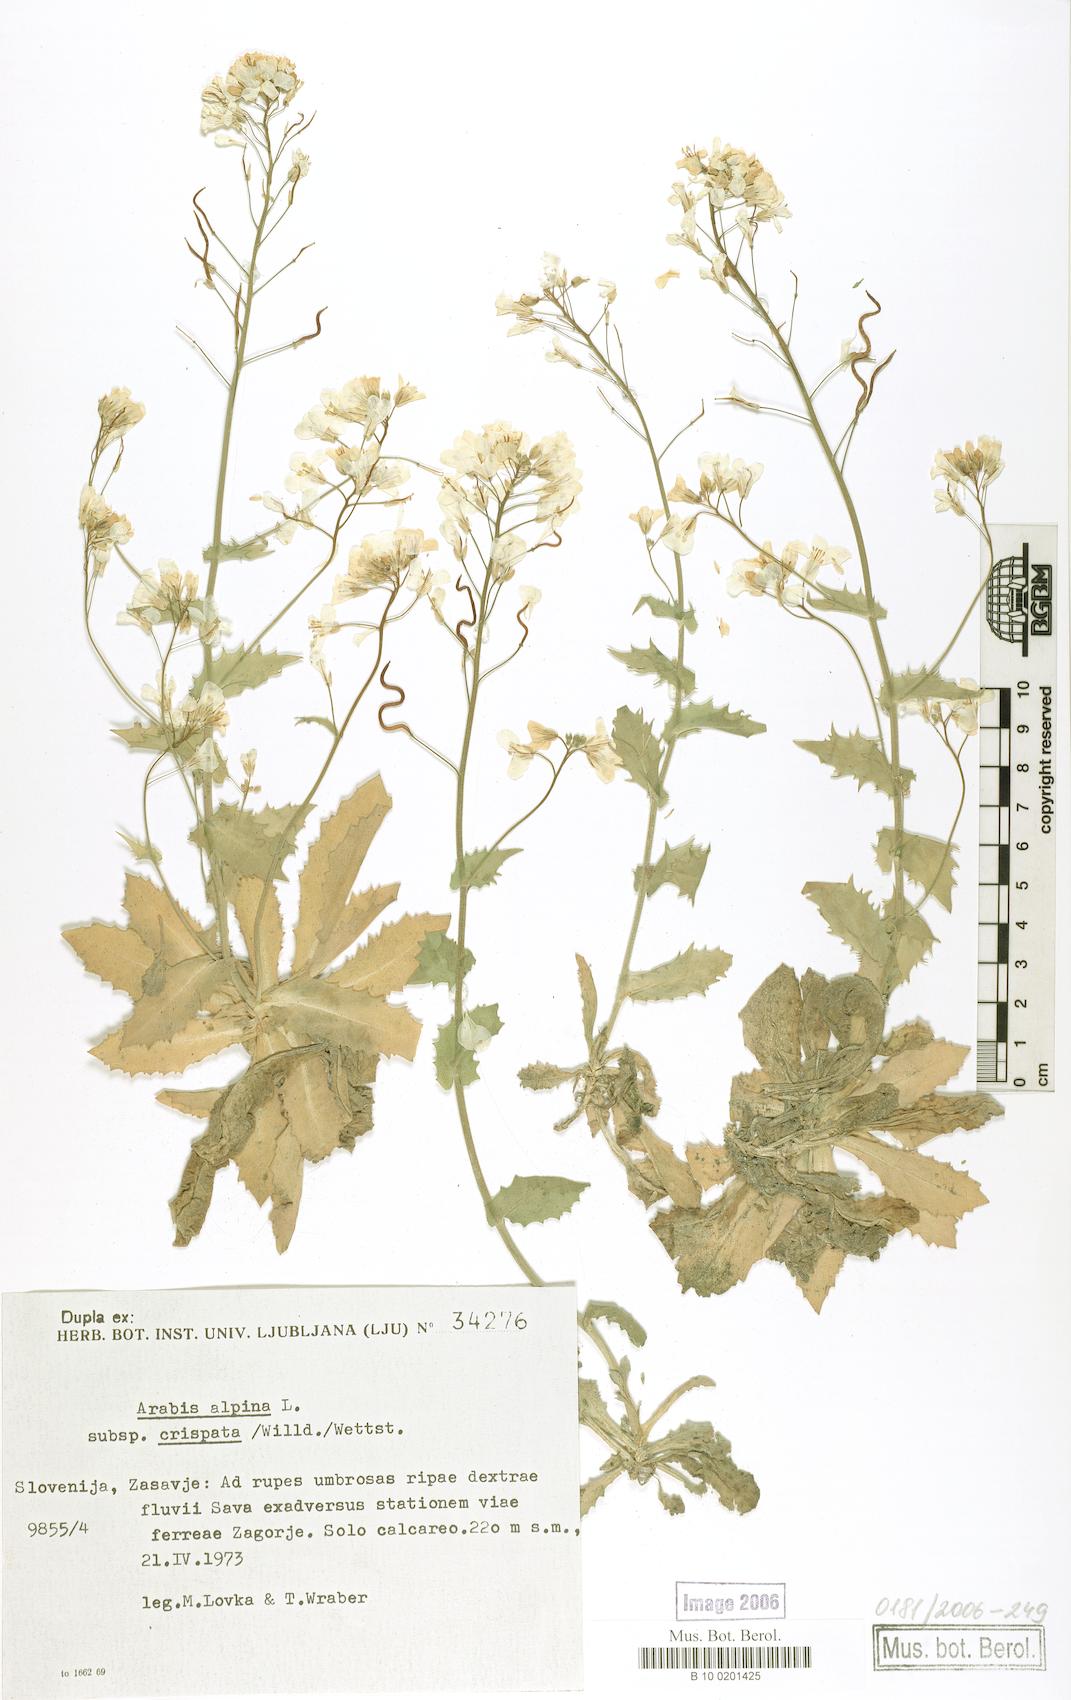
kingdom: Plantae
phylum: Tracheophyta
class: Magnoliopsida
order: Brassicales
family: Brassicaceae
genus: Arabis
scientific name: Arabis alpina
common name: Alpine rock-cress
